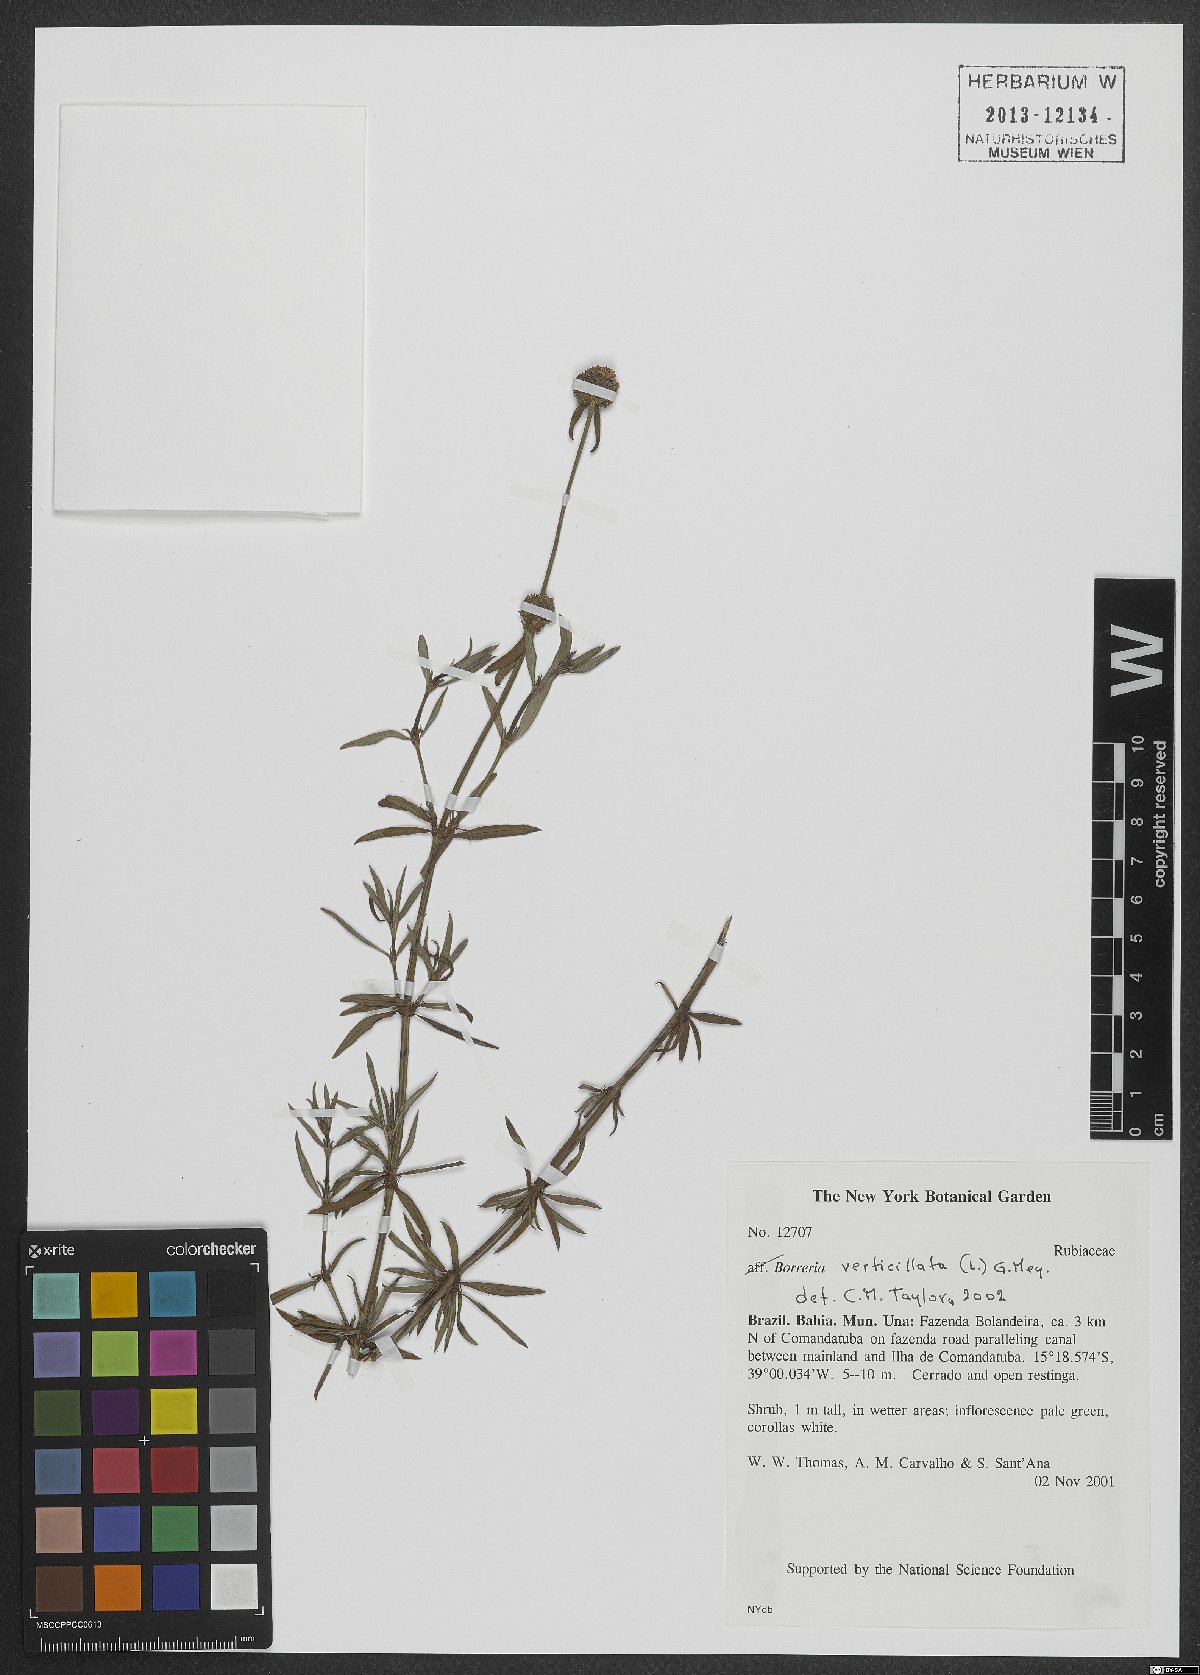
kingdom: Plantae
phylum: Tracheophyta
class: Magnoliopsida
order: Gentianales
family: Rubiaceae
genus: Spermacoce
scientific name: Spermacoce verticillata
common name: Shrubby false buttonweed
